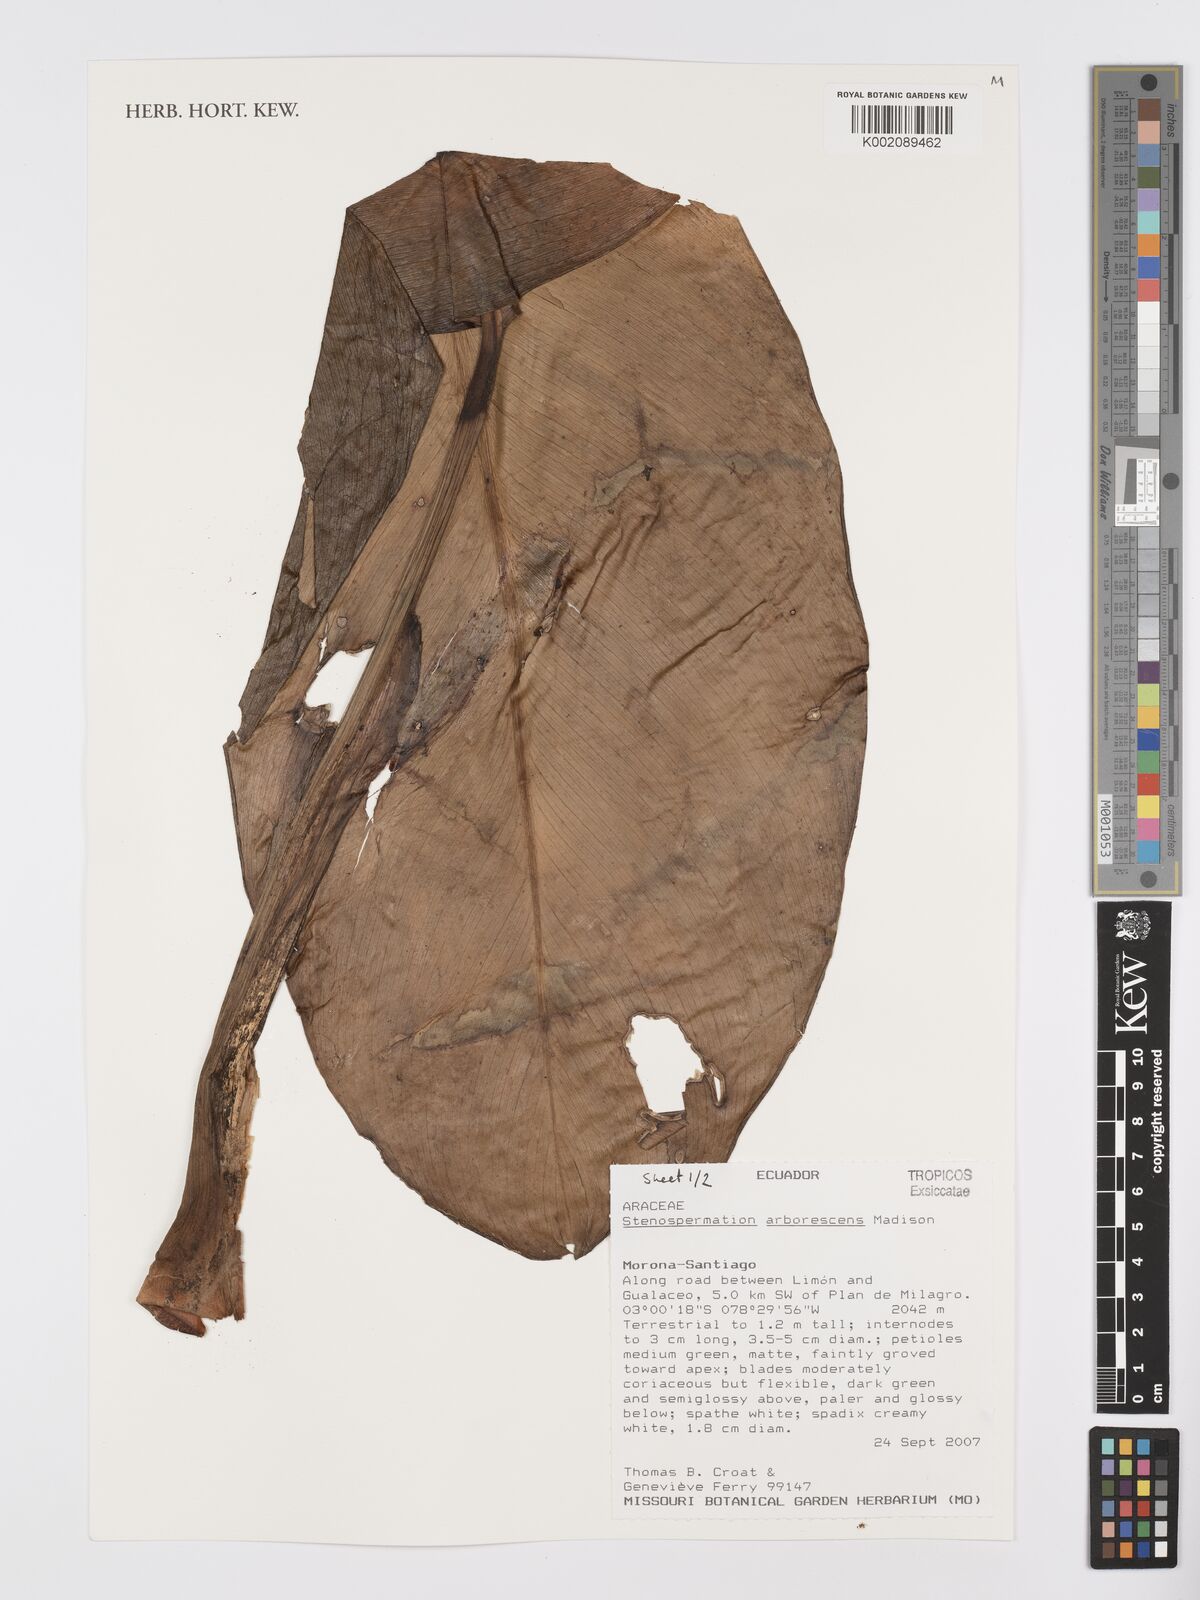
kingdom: Plantae
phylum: Tracheophyta
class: Liliopsida
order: Alismatales
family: Araceae
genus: Stenospermation
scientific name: Stenospermation arborescens
